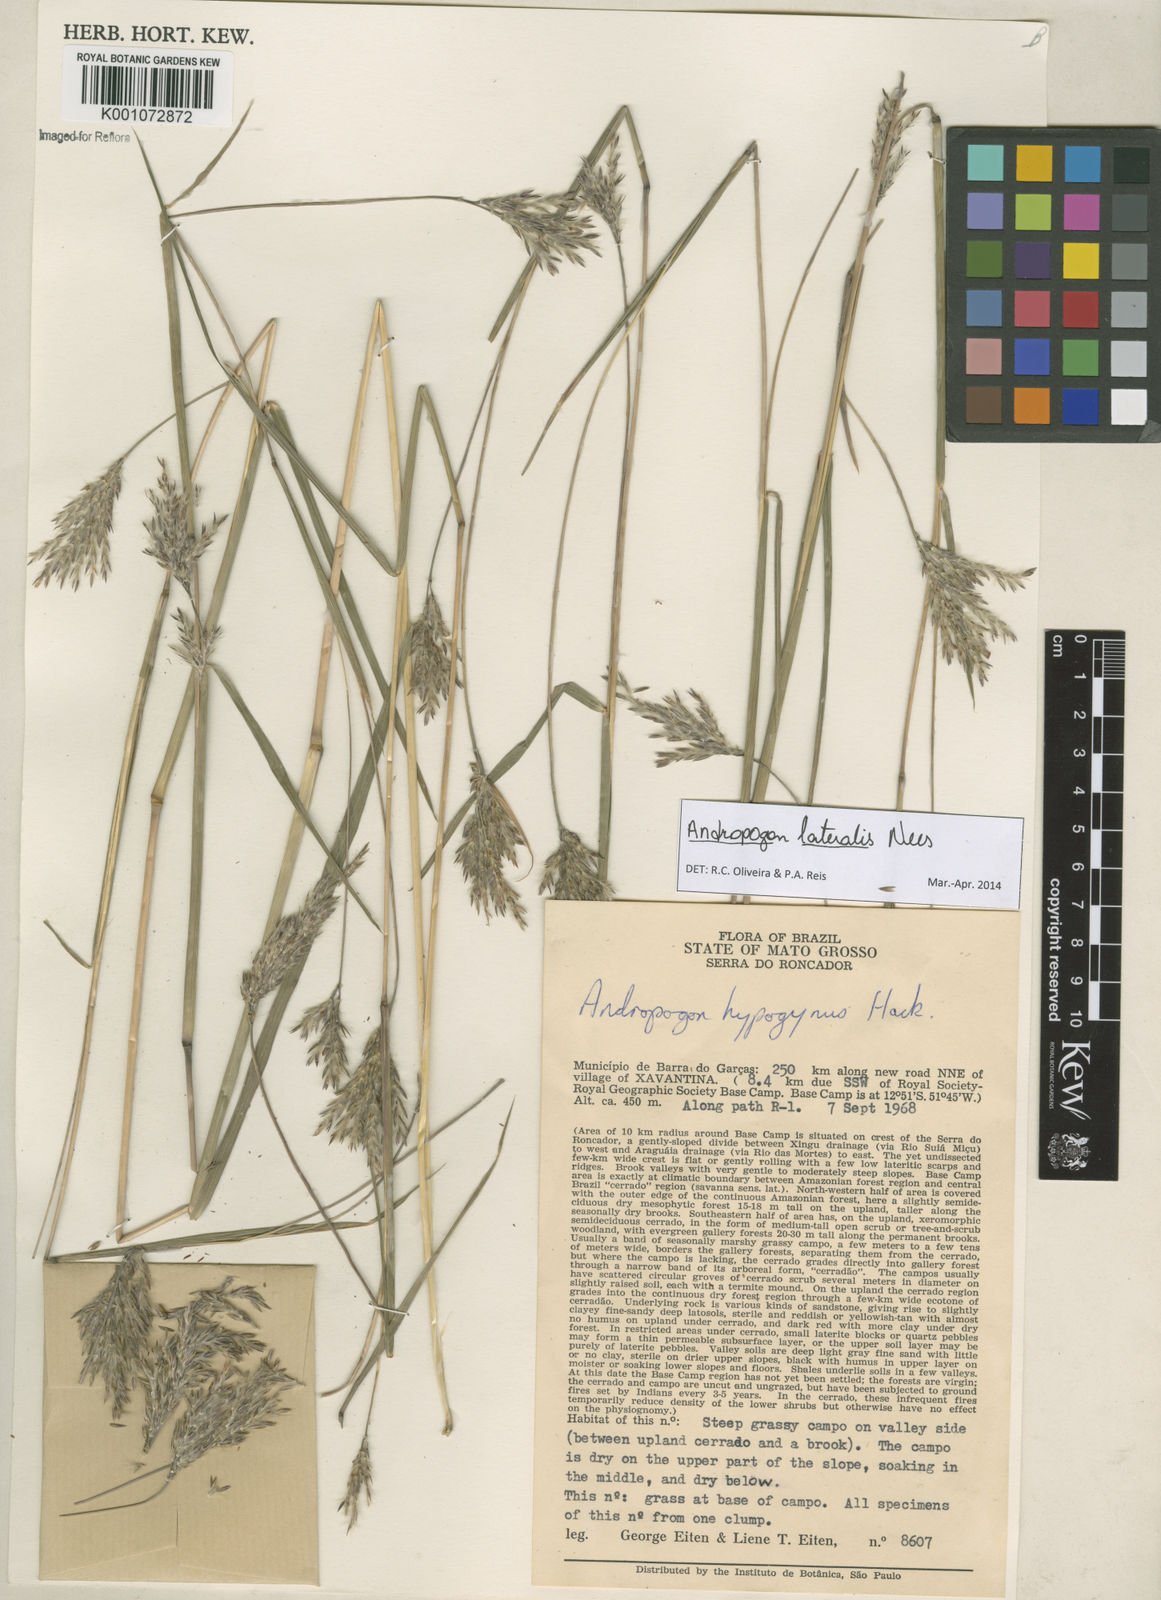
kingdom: Plantae
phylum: Tracheophyta
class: Liliopsida
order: Poales
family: Poaceae
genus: Andropogon
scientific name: Andropogon lateralis
